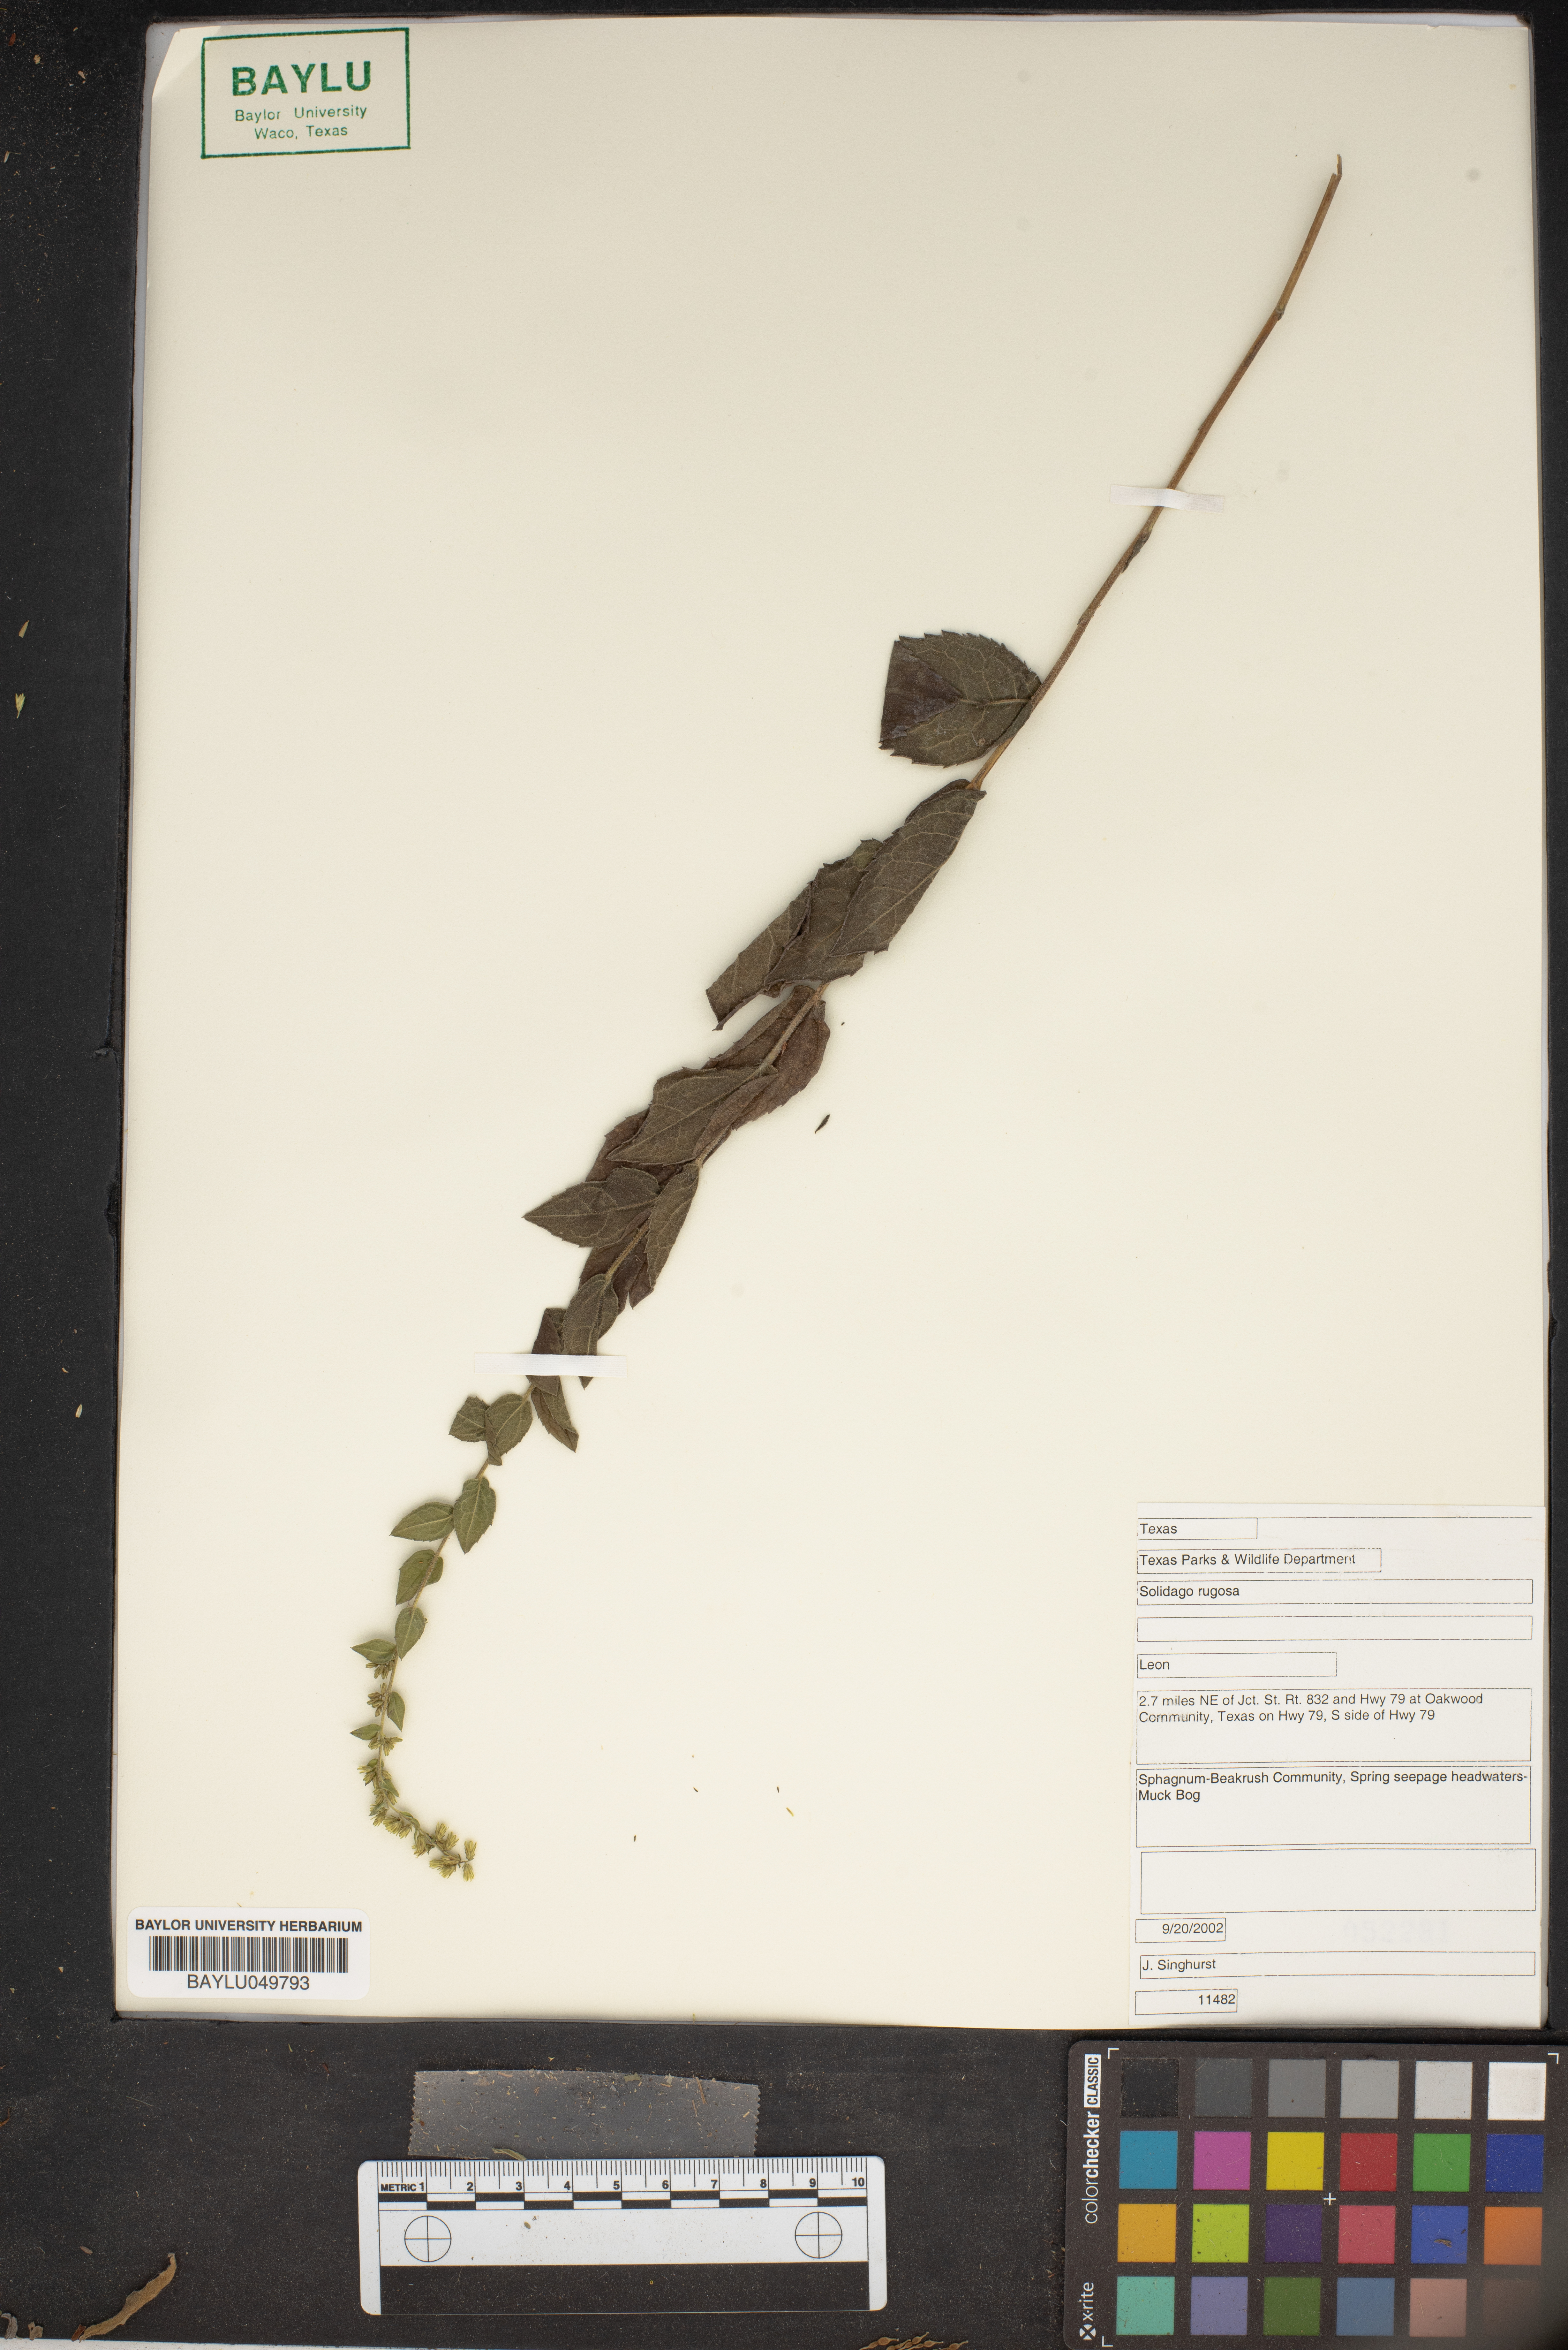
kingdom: Plantae
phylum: Tracheophyta
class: Magnoliopsida
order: Asterales
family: Asteraceae
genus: Solidago
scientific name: Solidago rugosa
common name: Rough-stemmed goldenrod
